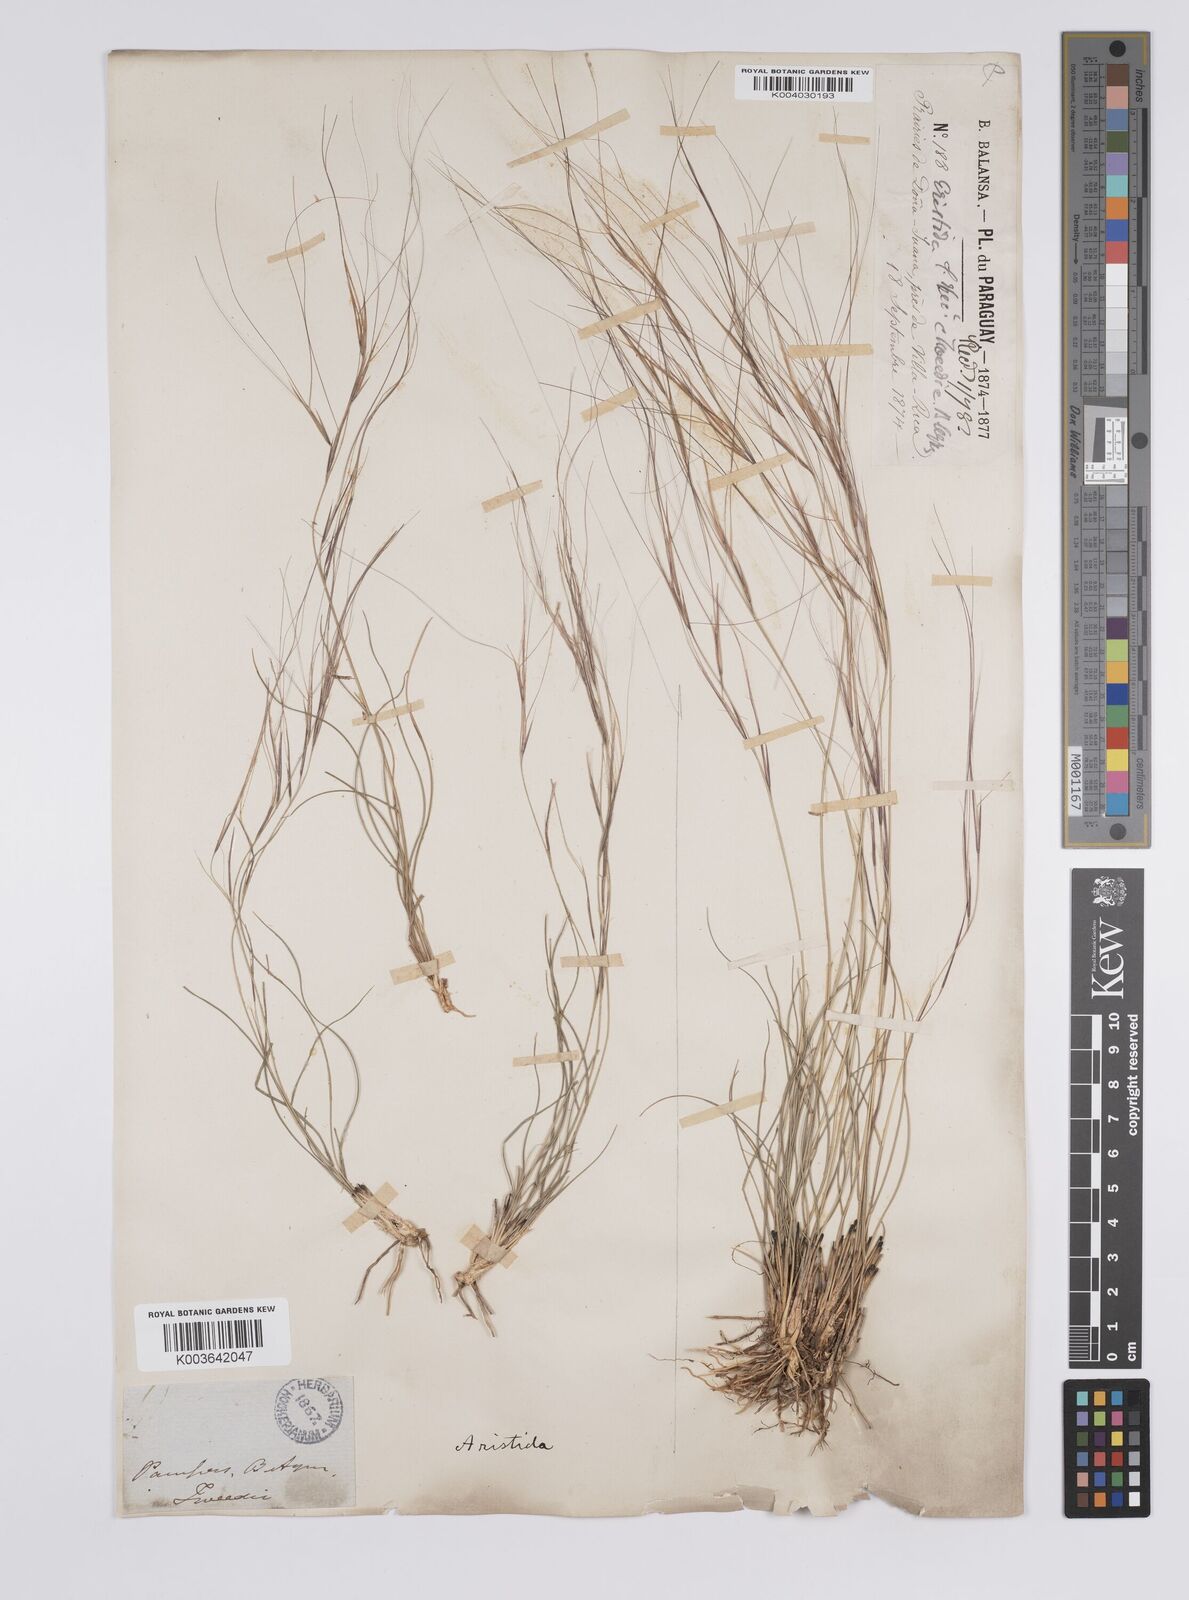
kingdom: Plantae
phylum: Tracheophyta
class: Liliopsida
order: Poales
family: Poaceae
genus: Aristida
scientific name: Aristida pallens
